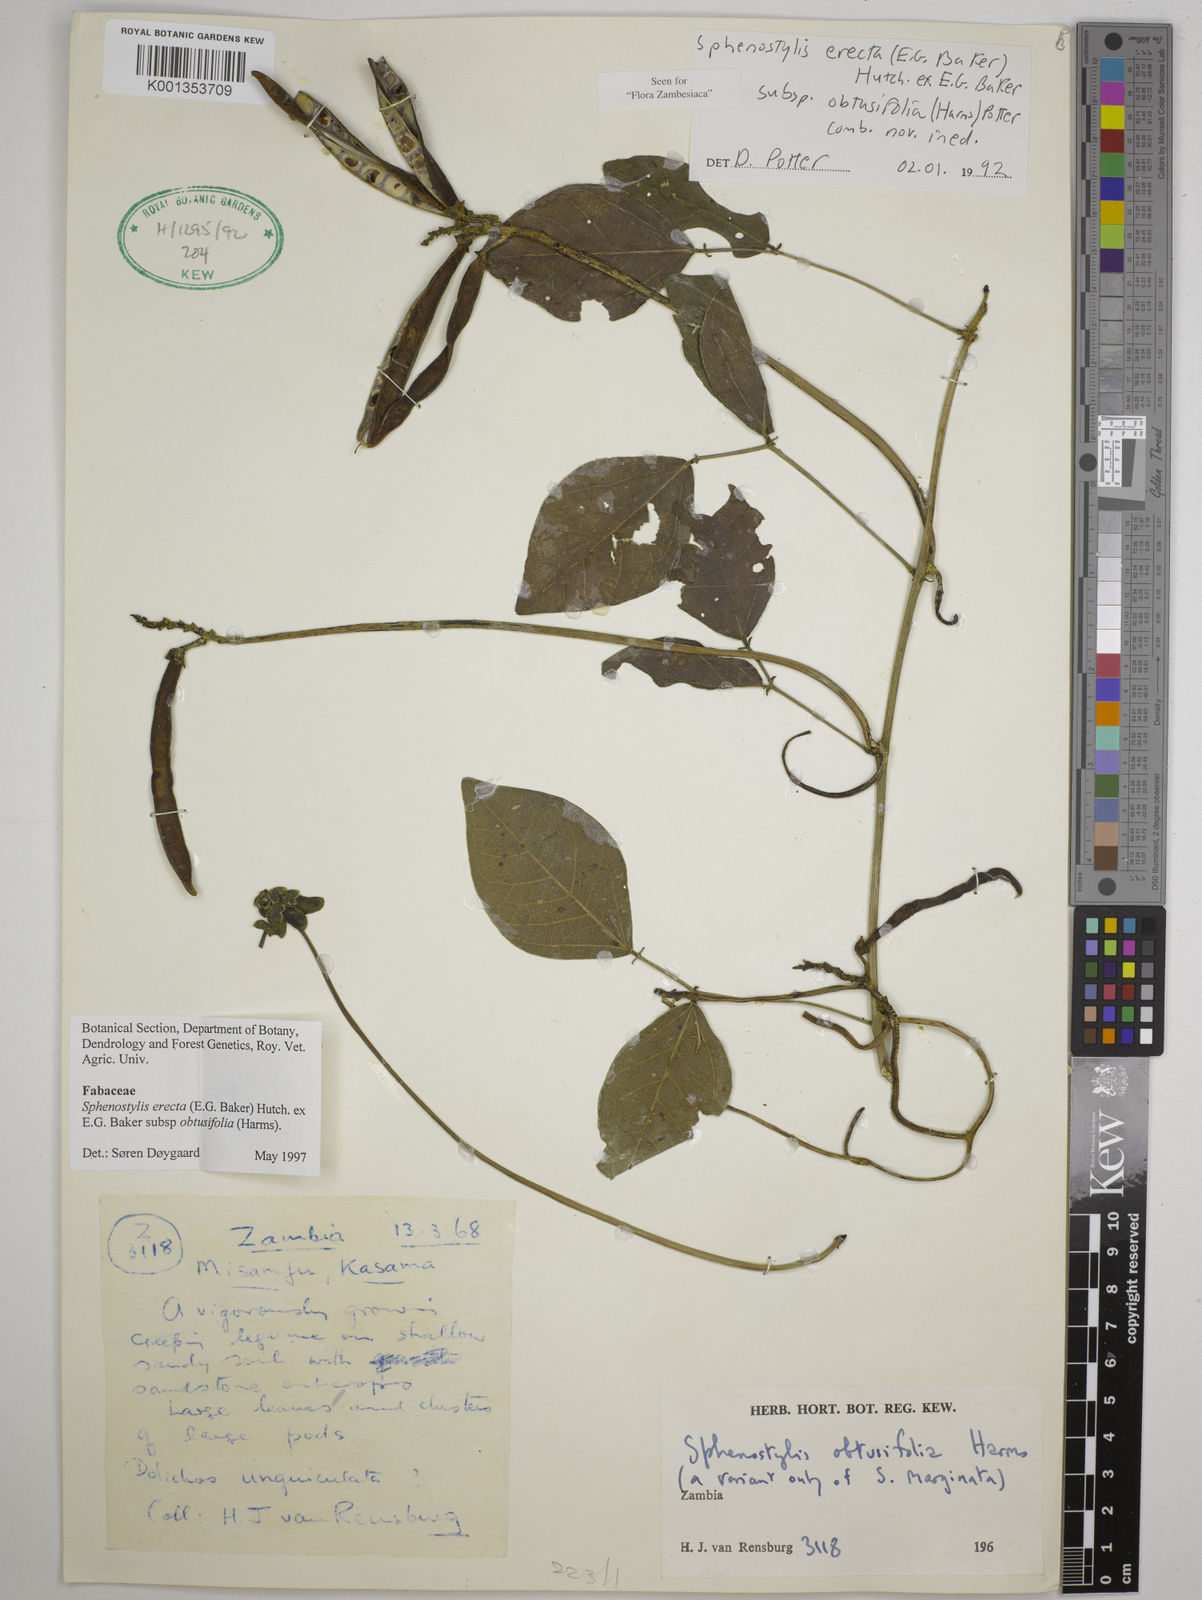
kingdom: Plantae
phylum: Tracheophyta
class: Magnoliopsida
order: Fabales
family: Fabaceae
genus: Sphenostylis
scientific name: Sphenostylis
